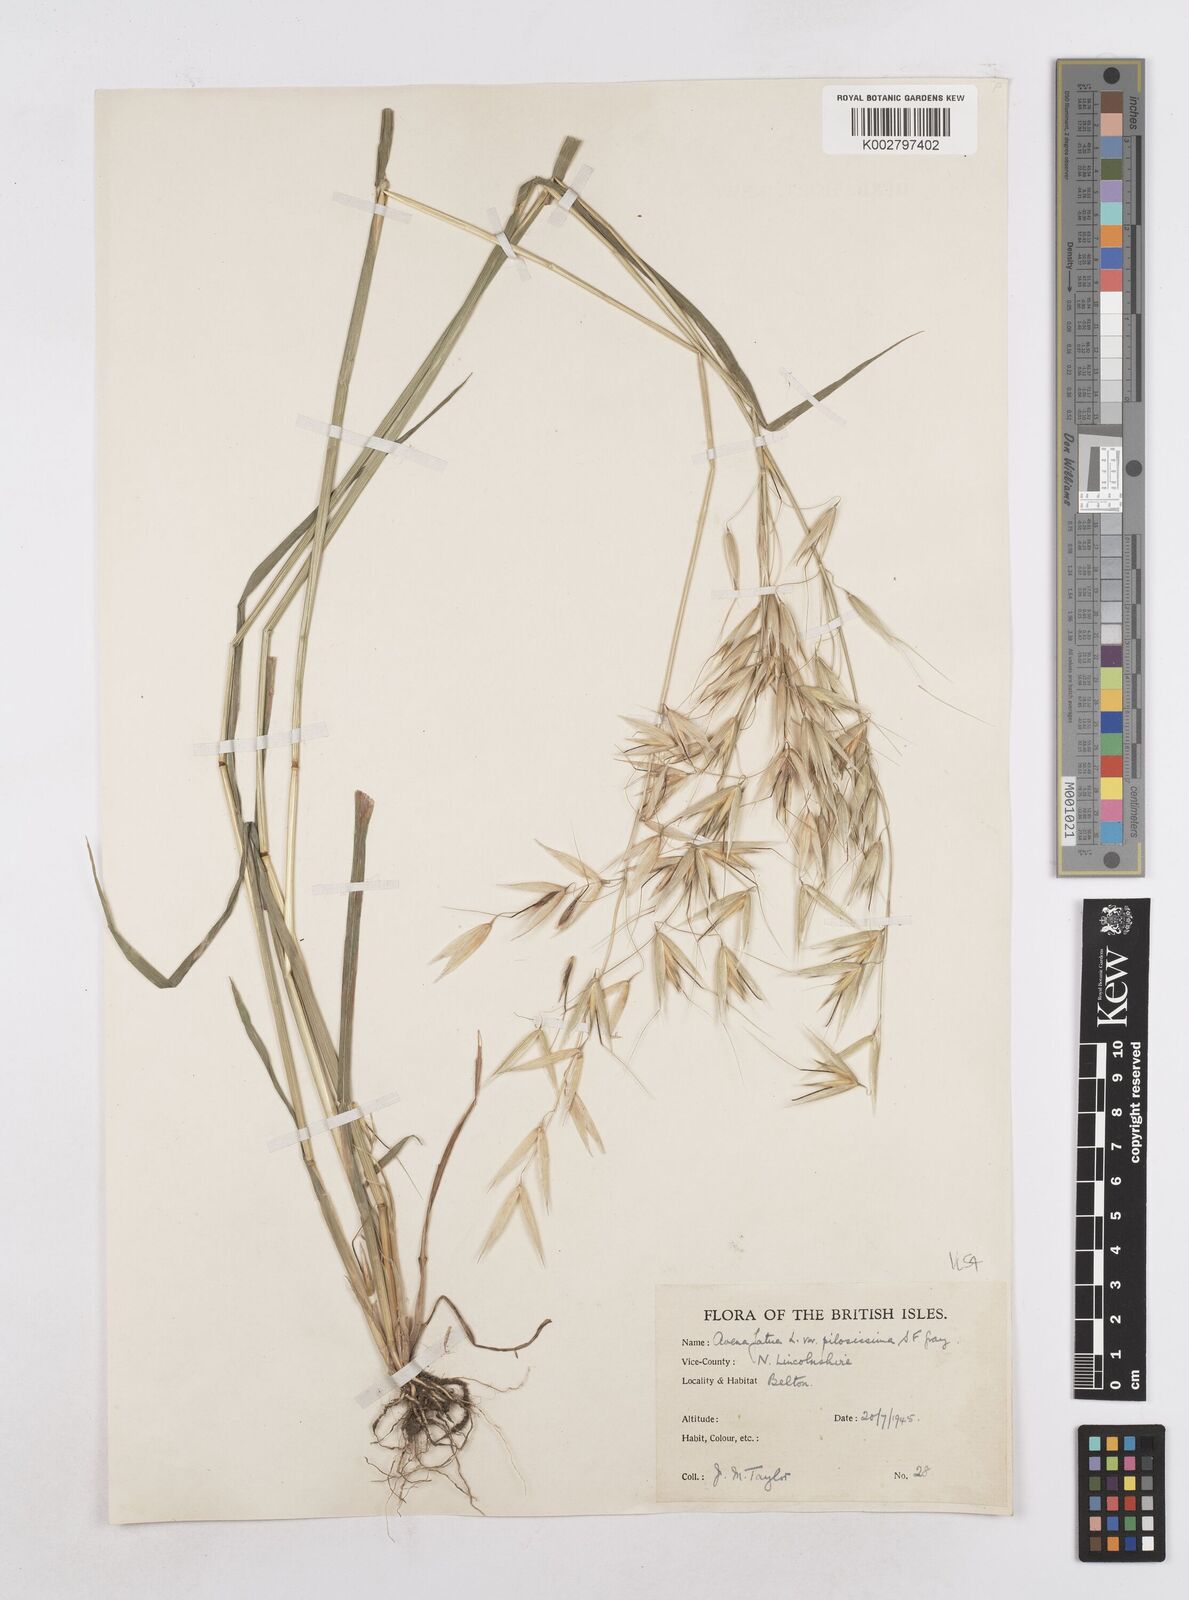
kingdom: Plantae
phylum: Tracheophyta
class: Liliopsida
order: Poales
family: Poaceae
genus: Avena
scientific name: Avena fatua
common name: Wild oat
